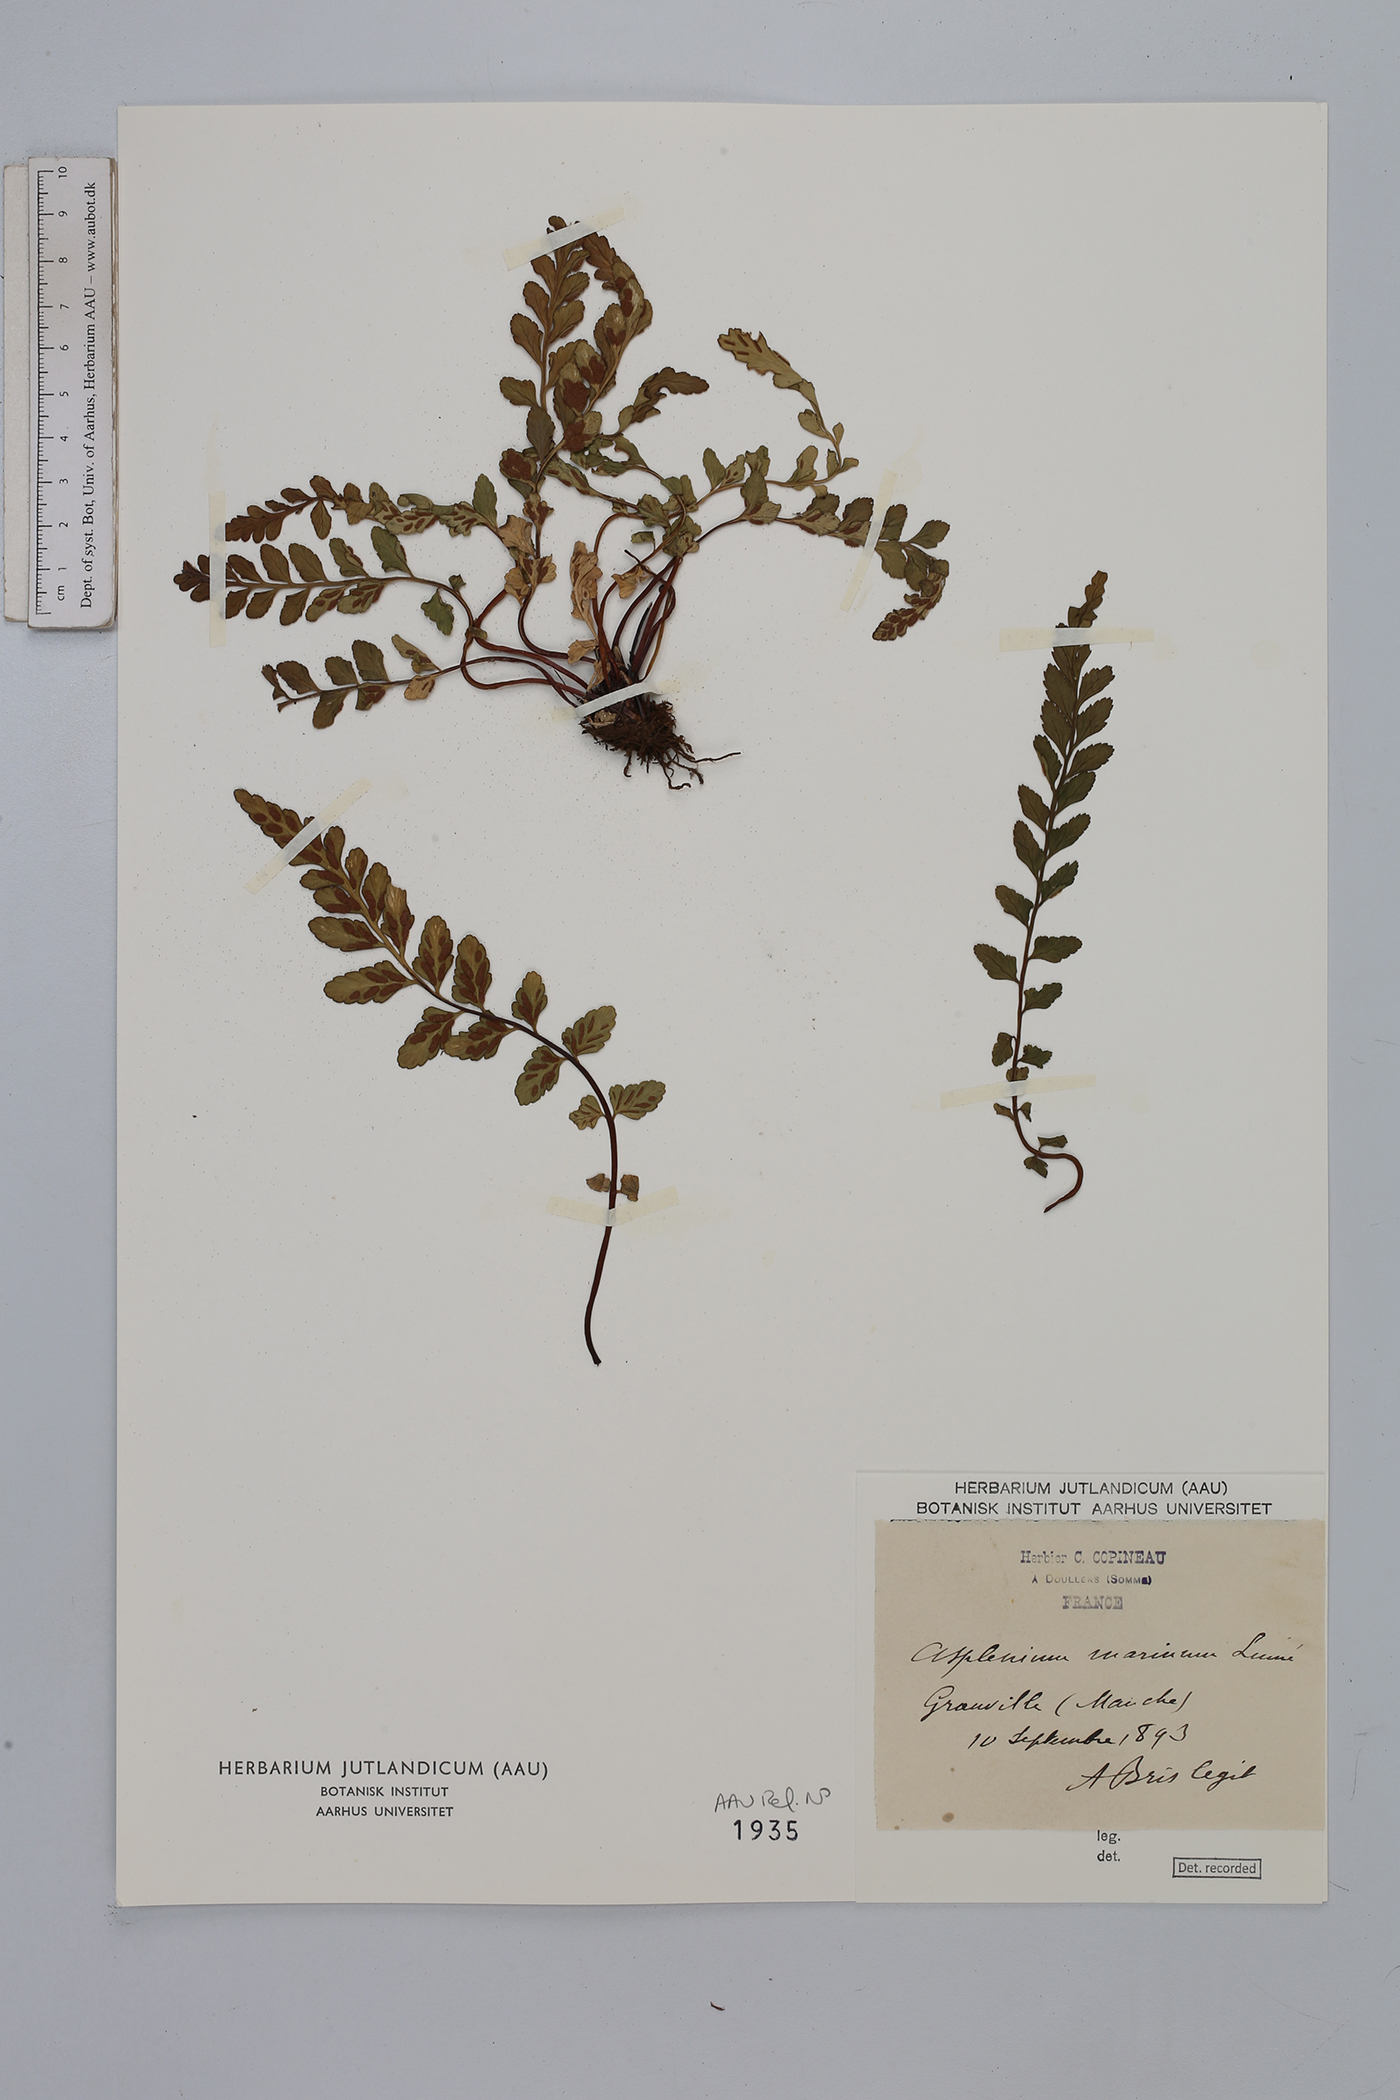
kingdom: Plantae
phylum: Tracheophyta
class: Polypodiopsida
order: Polypodiales
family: Aspleniaceae
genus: Asplenium
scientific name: Asplenium marinum
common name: Sea spleenwort
